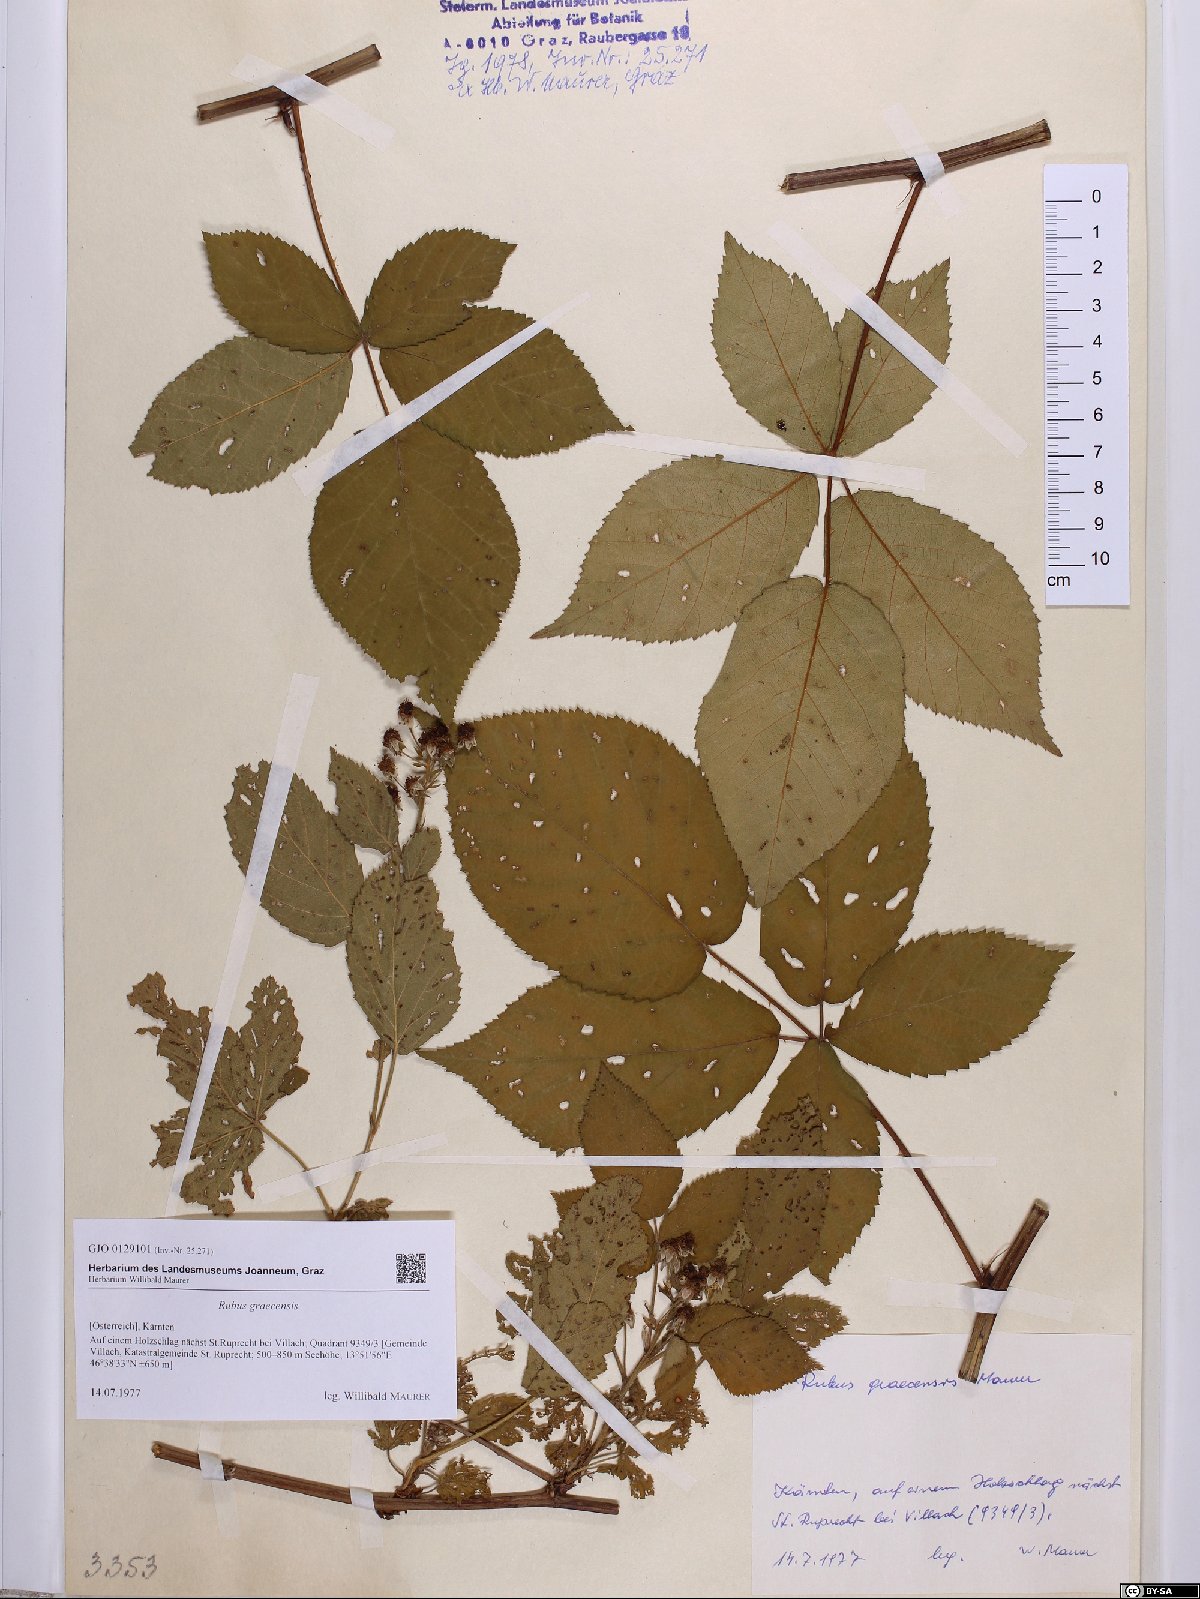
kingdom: Plantae
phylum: Tracheophyta
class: Magnoliopsida
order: Rosales
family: Rosaceae
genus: Rubus
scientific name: Rubus graecensis
